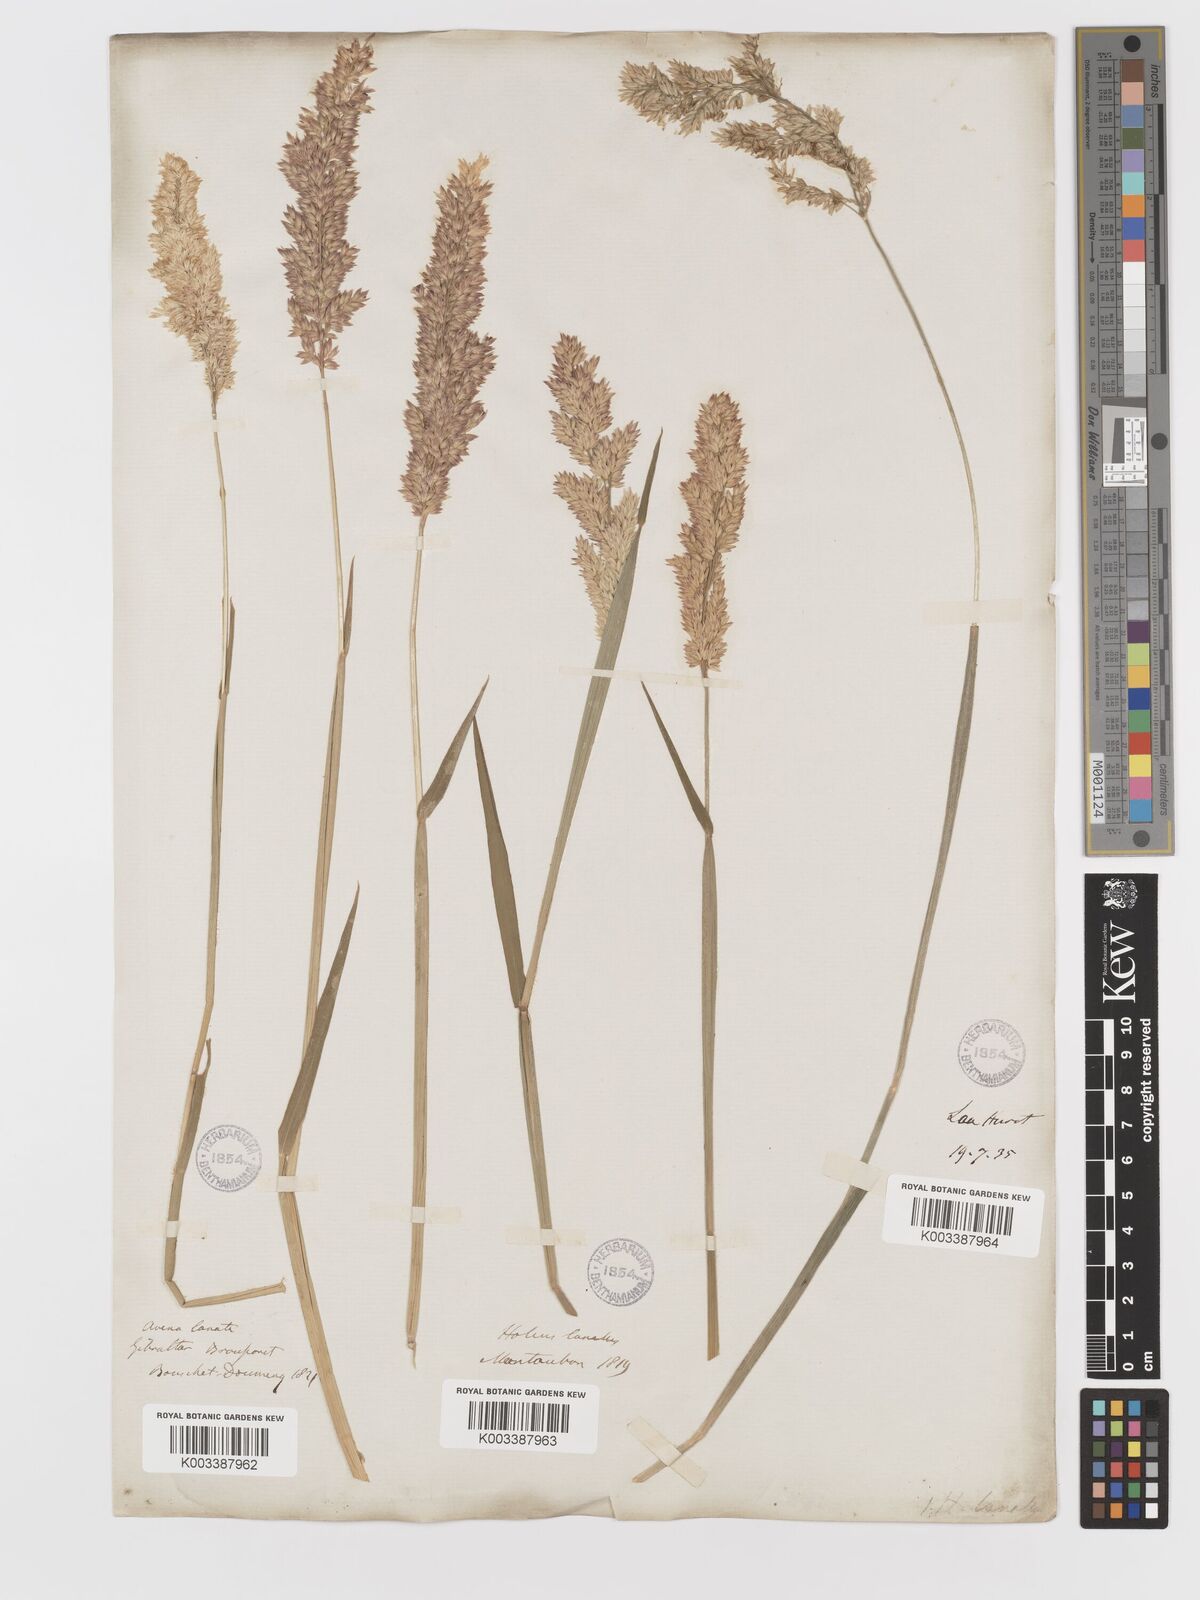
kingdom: Plantae
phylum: Tracheophyta
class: Liliopsida
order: Poales
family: Poaceae
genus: Holcus
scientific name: Holcus lanatus
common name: Yorkshire-fog
